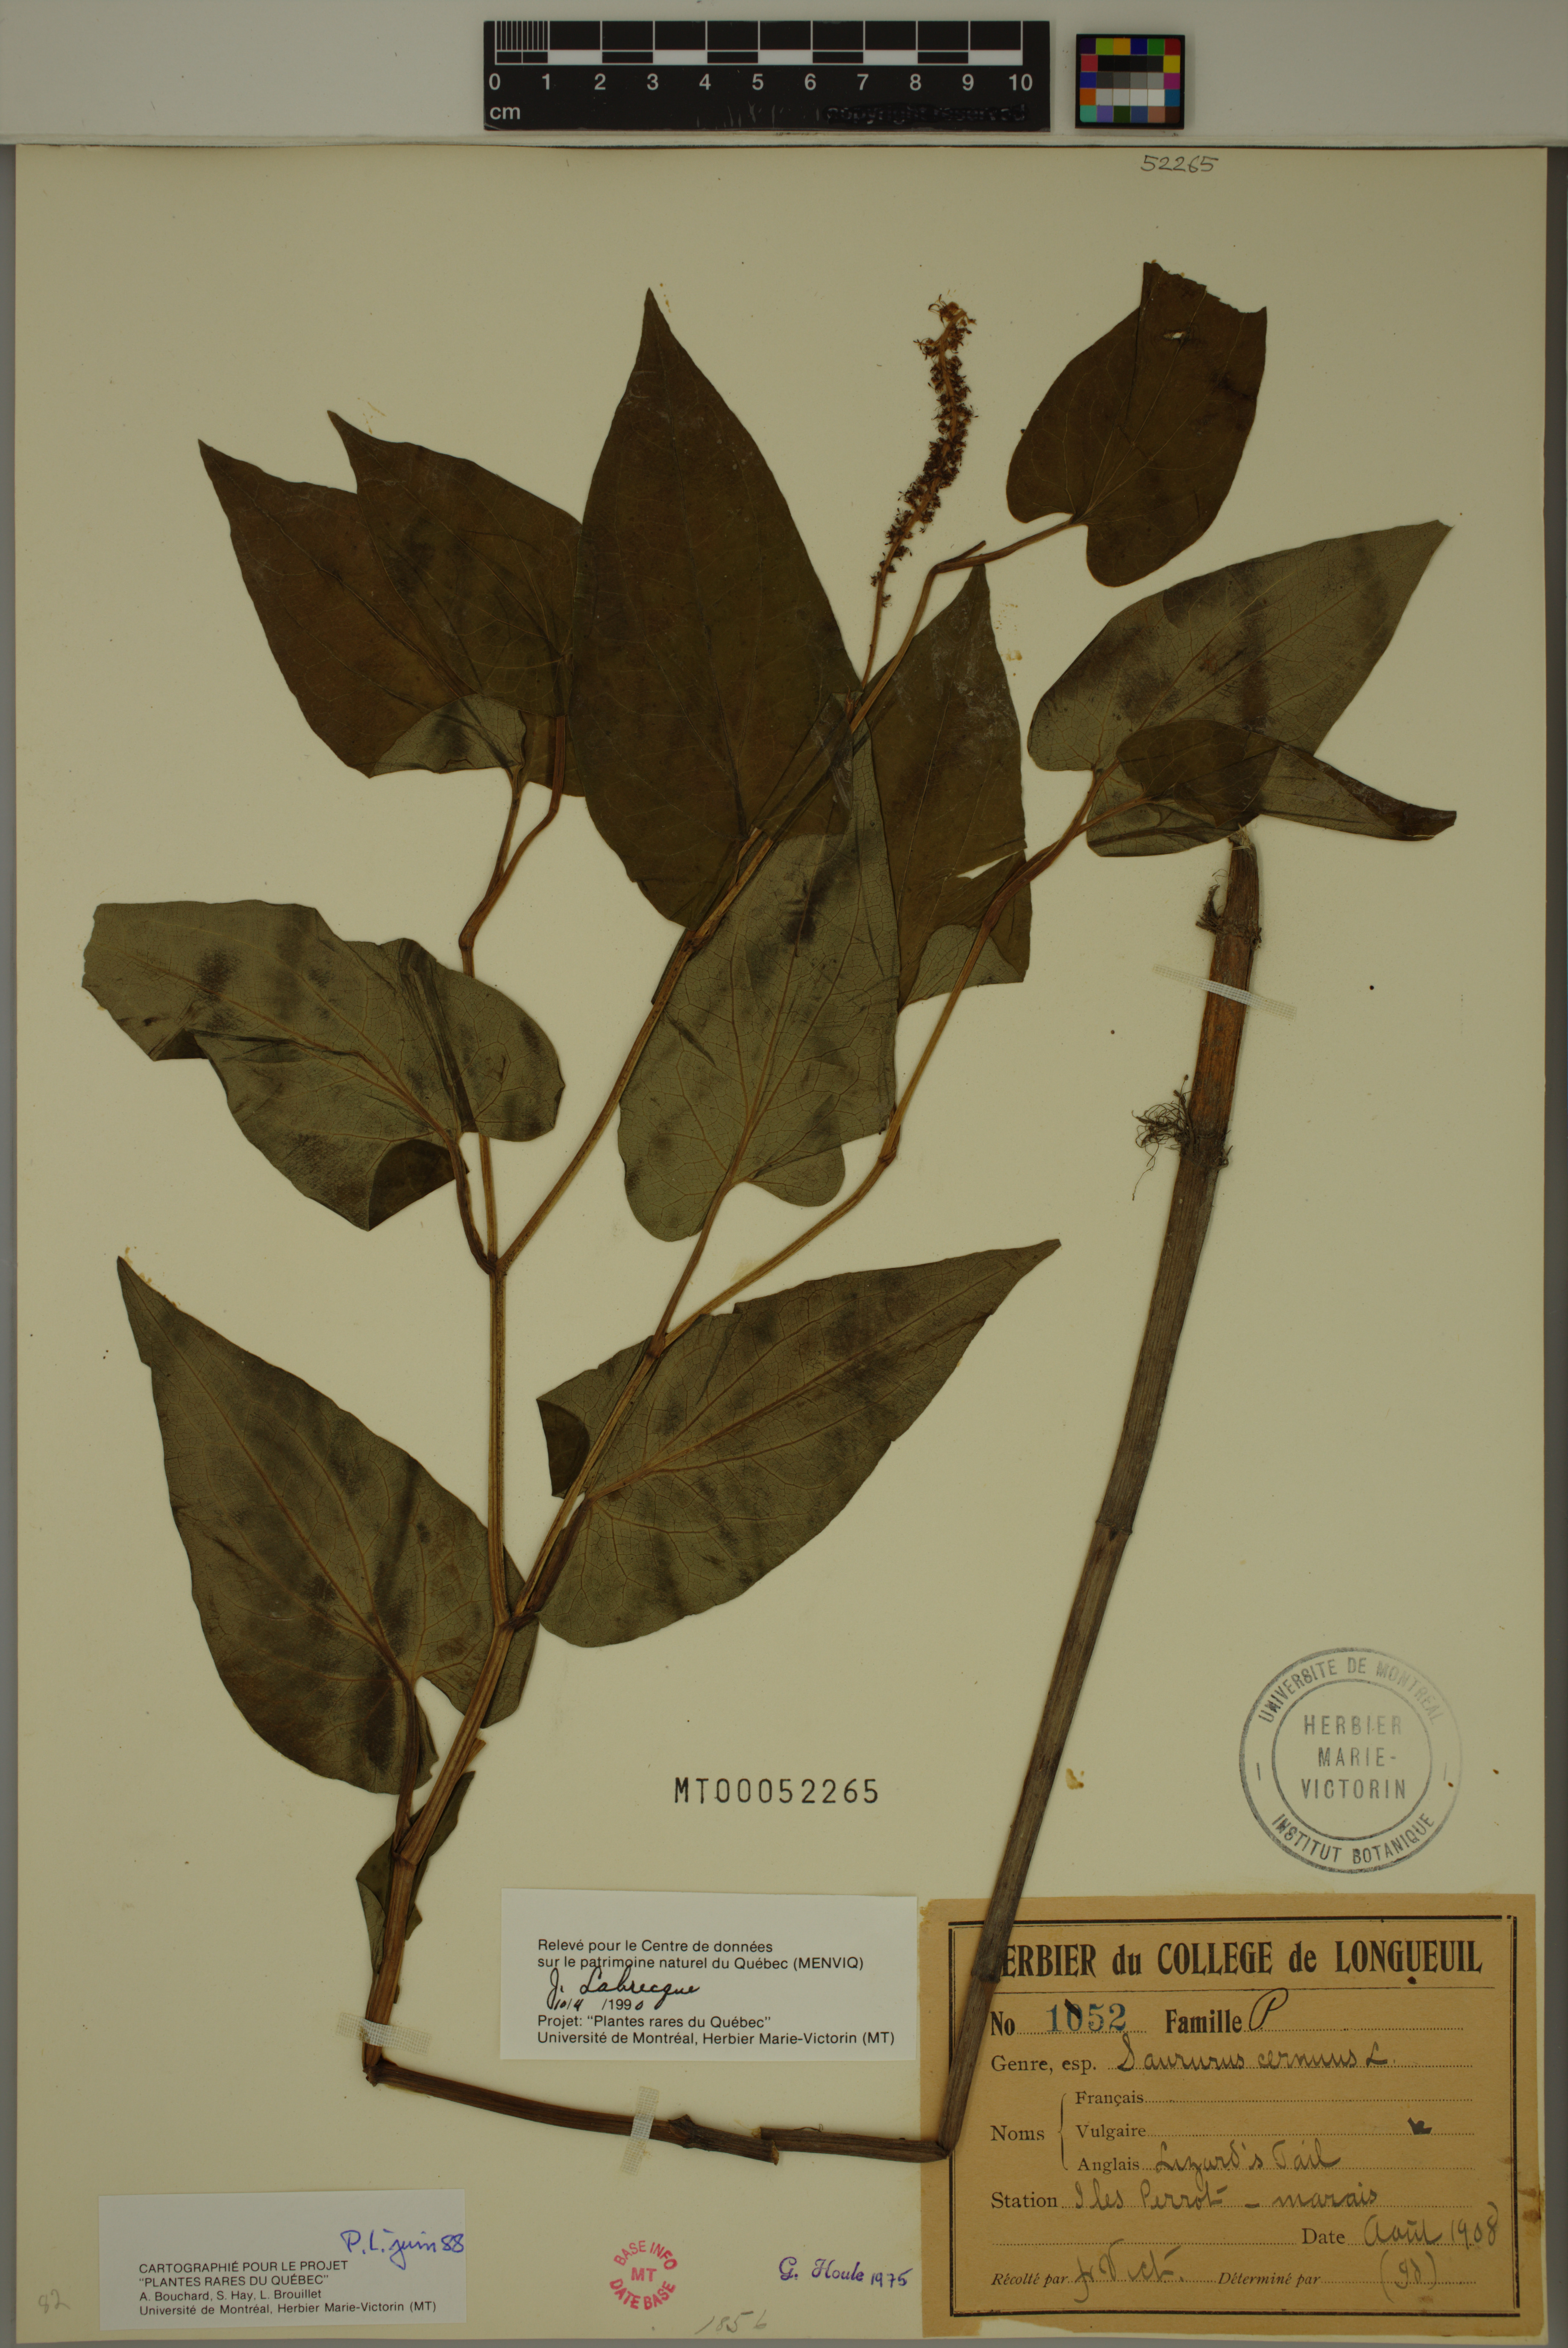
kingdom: Plantae
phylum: Tracheophyta
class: Magnoliopsida
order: Piperales
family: Saururaceae
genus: Saururus
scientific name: Saururus cernuus
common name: Lizard's-tail
